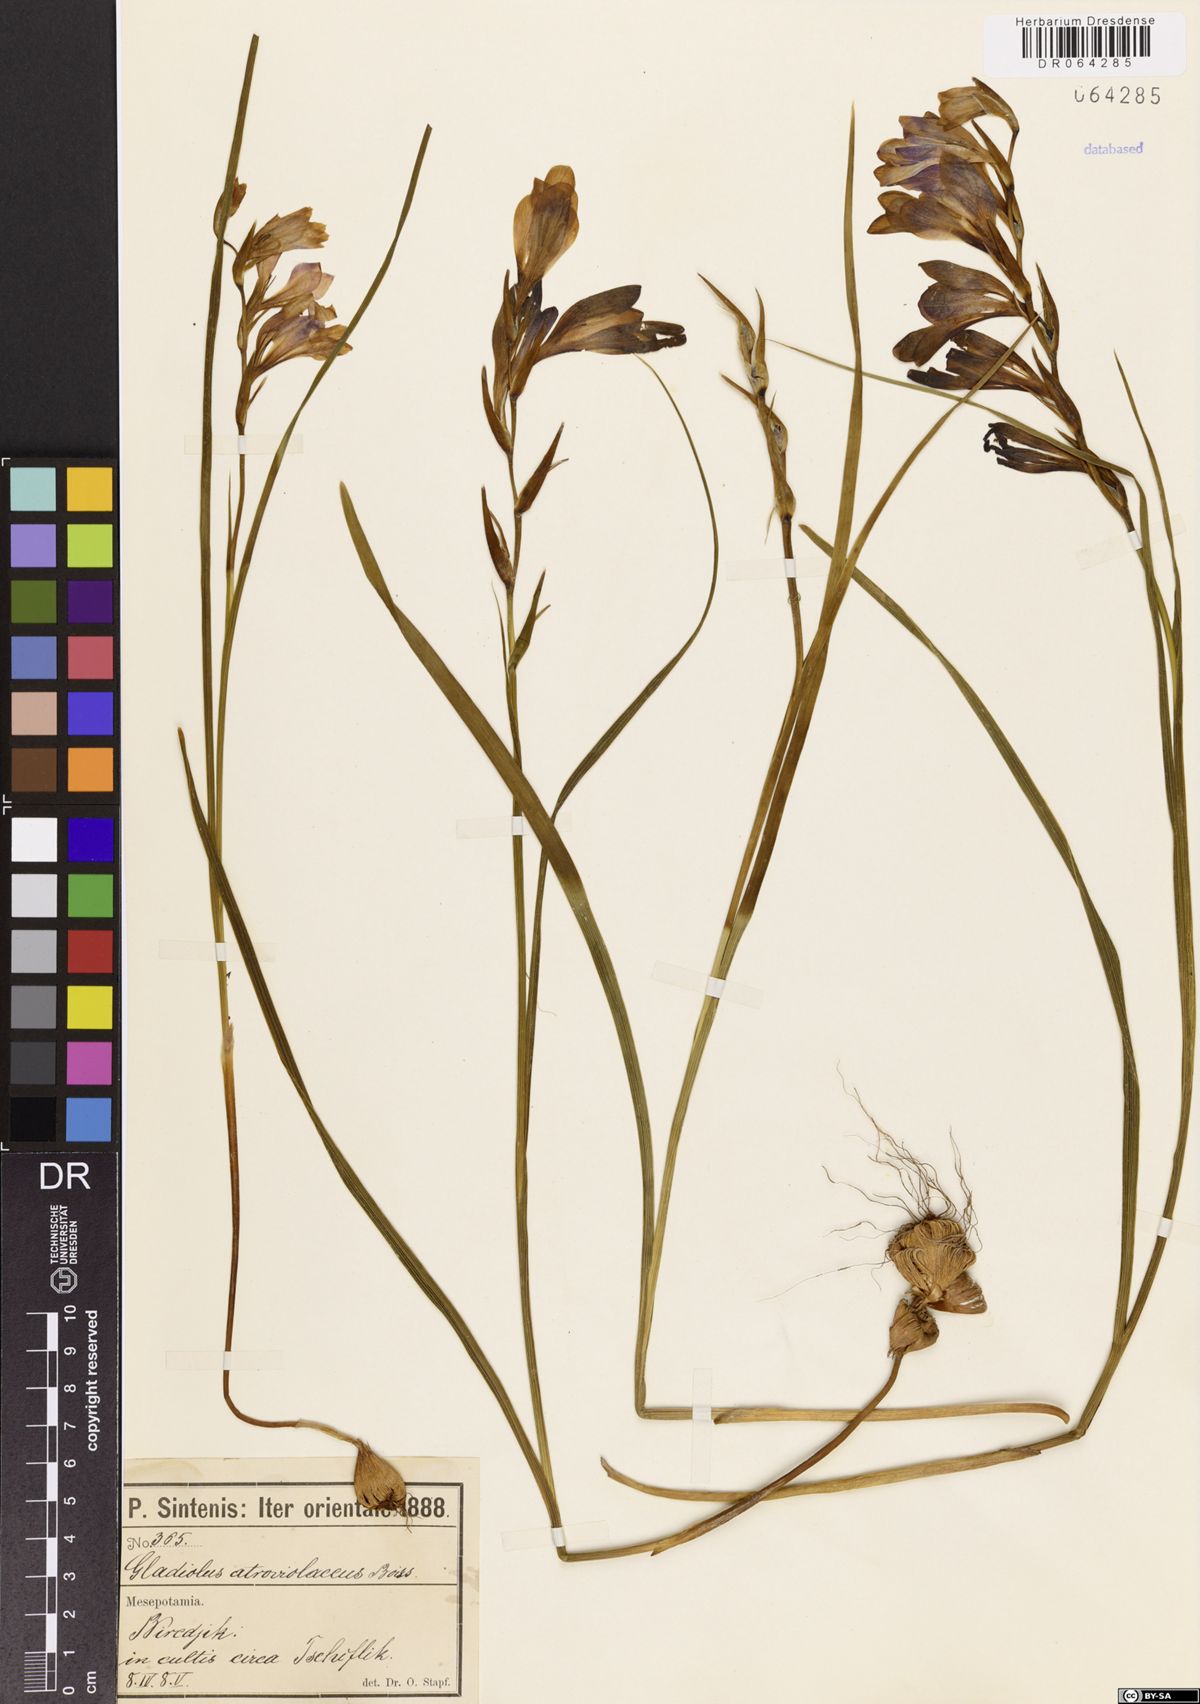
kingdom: Plantae
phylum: Tracheophyta
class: Liliopsida
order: Asparagales
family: Iridaceae
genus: Gladiolus
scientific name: Gladiolus atroviolaceus
